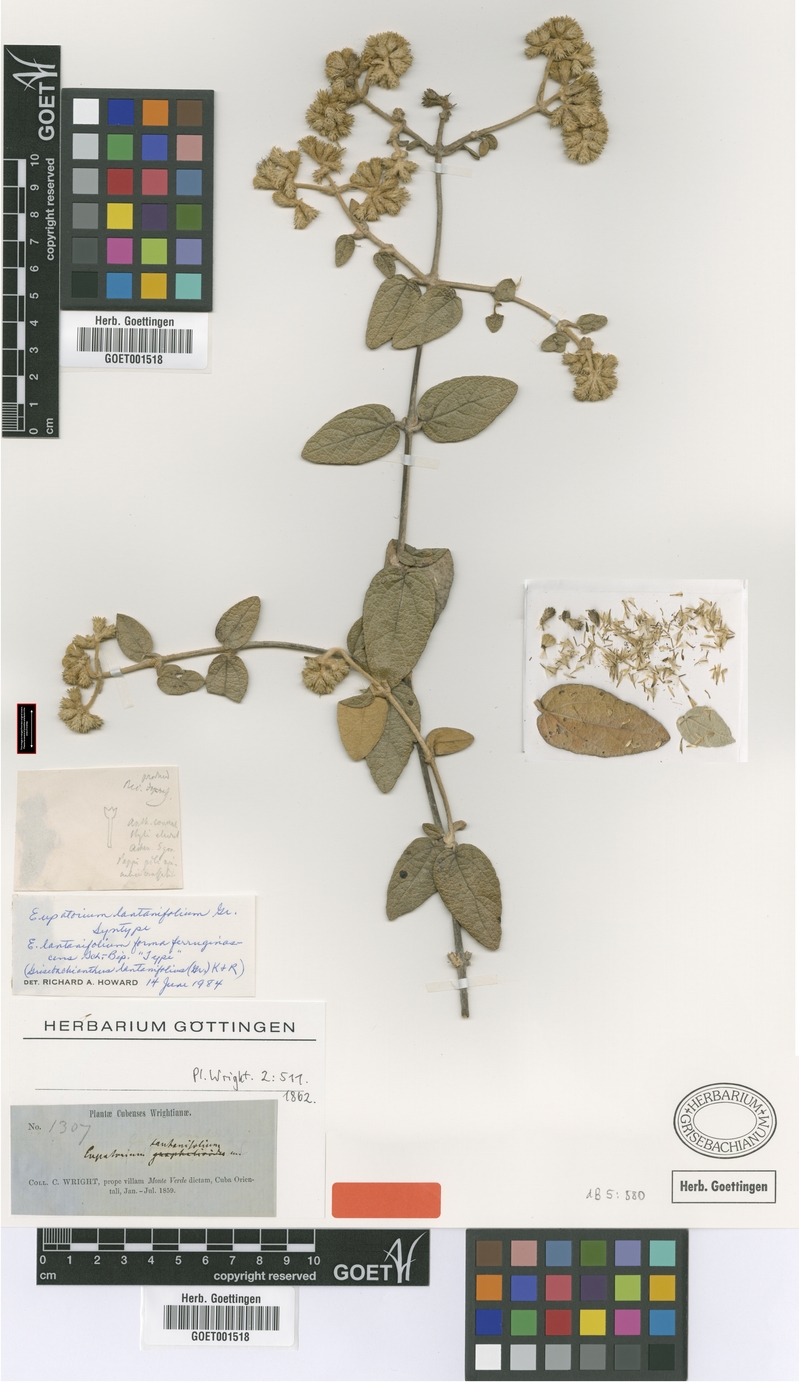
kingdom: Plantae
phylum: Tracheophyta
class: Magnoliopsida
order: Asterales
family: Asteraceae
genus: Grisebachianthus
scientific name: Grisebachianthus lantanifolius
